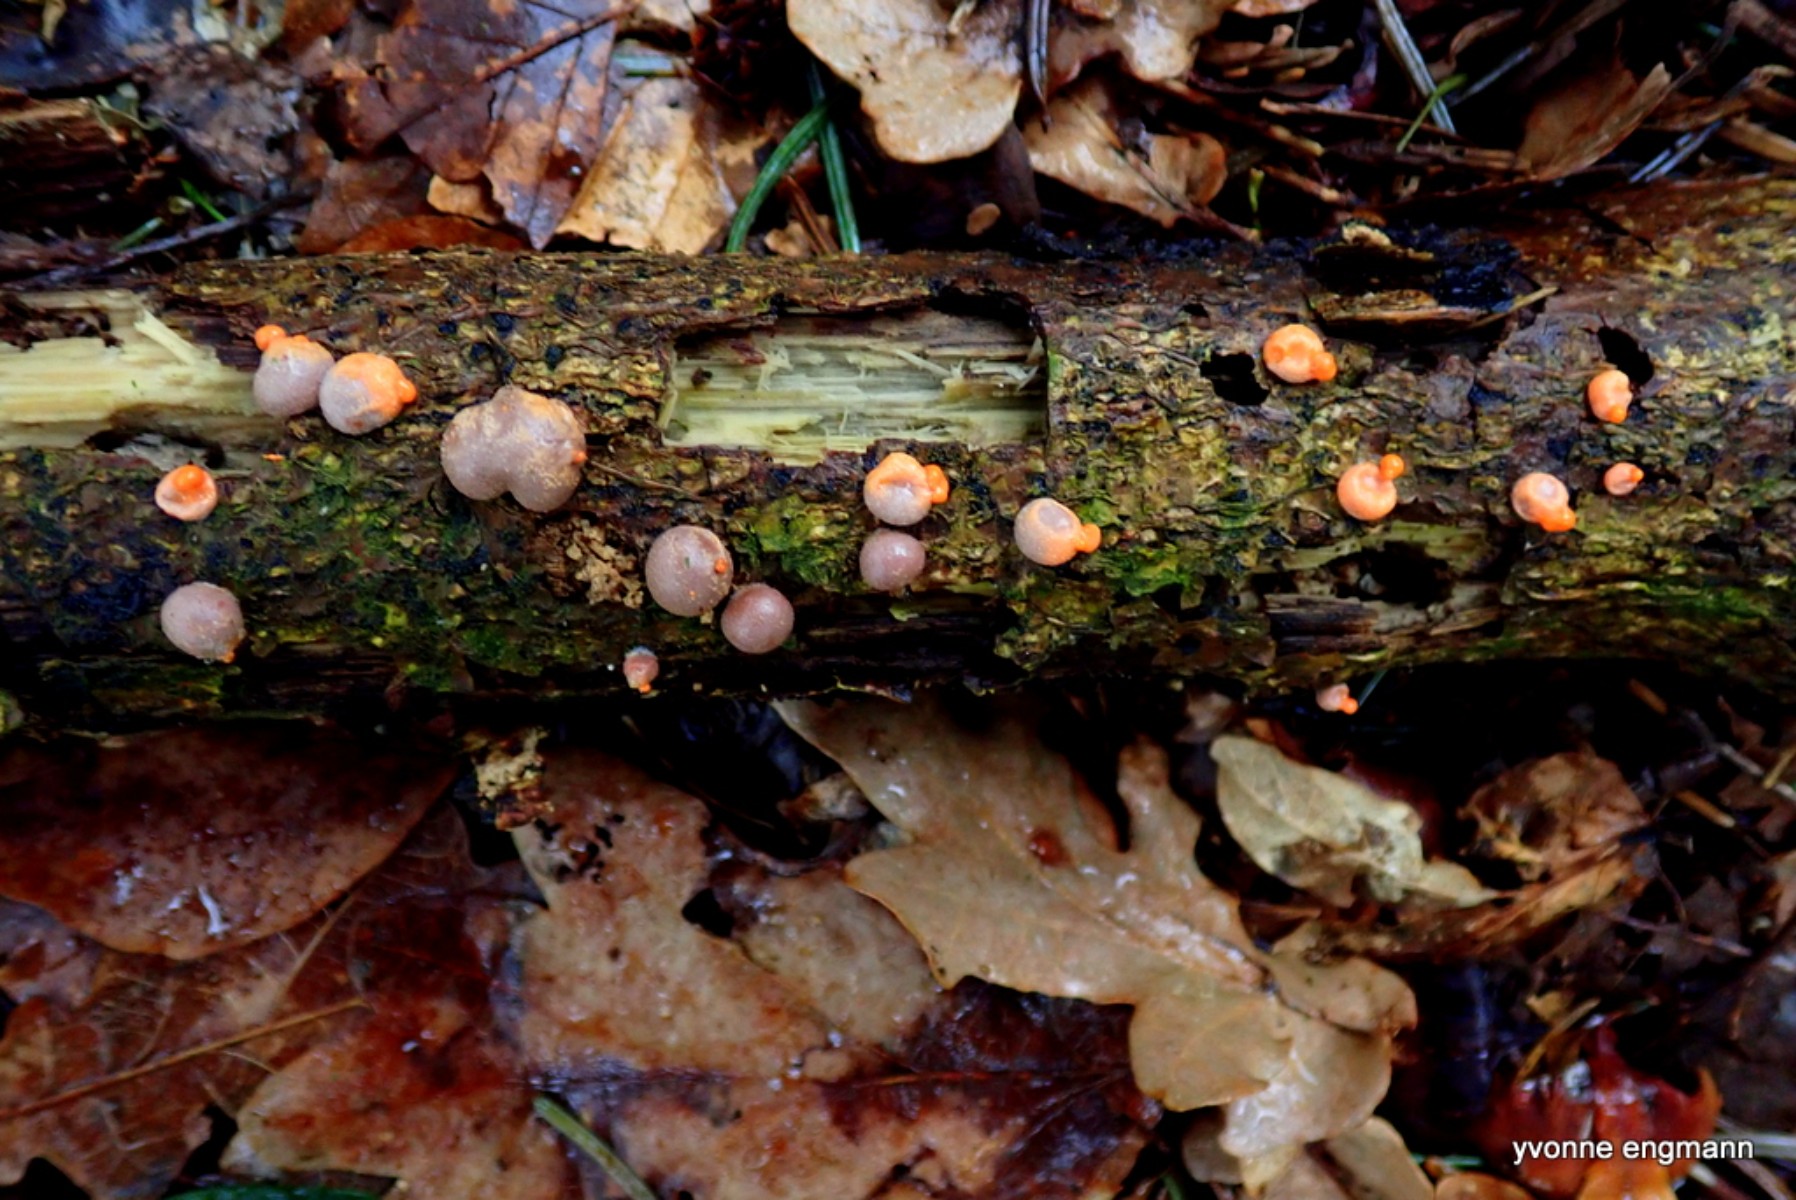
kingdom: Protozoa
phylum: Mycetozoa
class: Myxomycetes
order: Cribrariales
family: Tubiferaceae
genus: Lycogala
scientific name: Lycogala epidendrum
